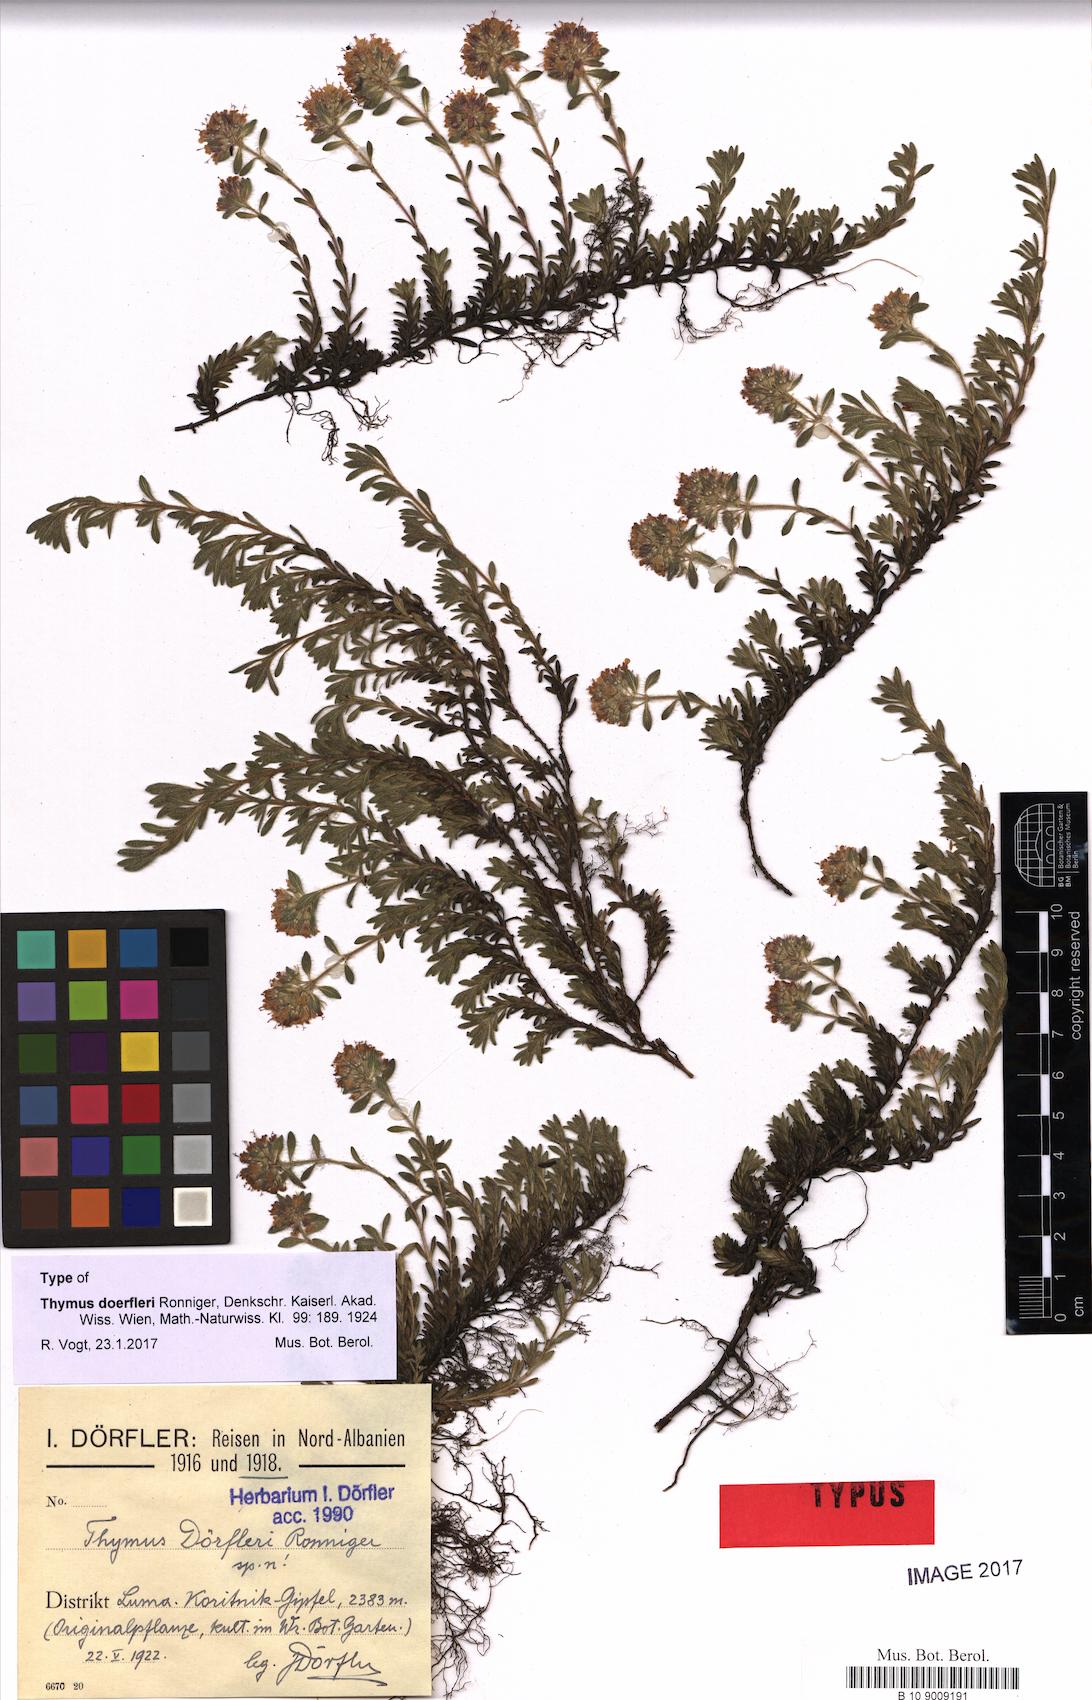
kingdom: Plantae
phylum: Tracheophyta
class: Magnoliopsida
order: Lamiales
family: Lamiaceae
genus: Thymus
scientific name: Thymus doerfleri
